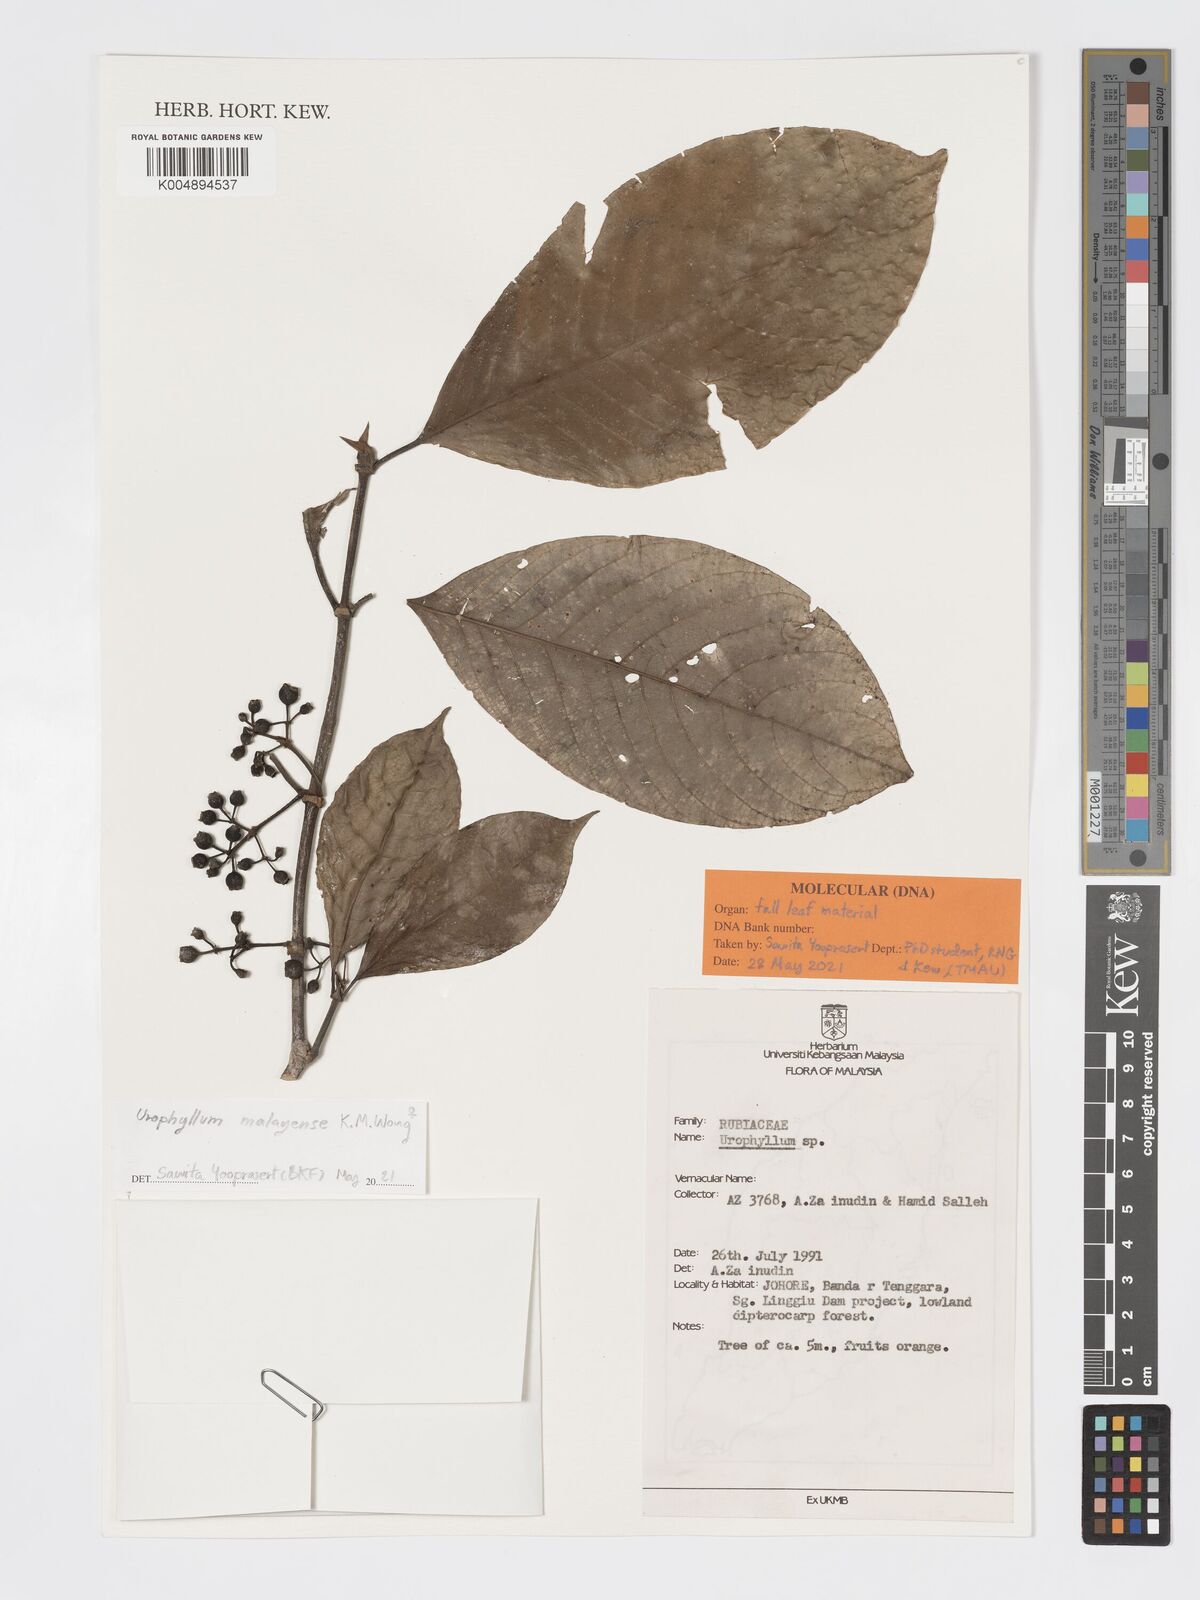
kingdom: Plantae
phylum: Tracheophyta
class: Magnoliopsida
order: Gentianales
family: Rubiaceae
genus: Urophyllum
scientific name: Urophyllum malayense
